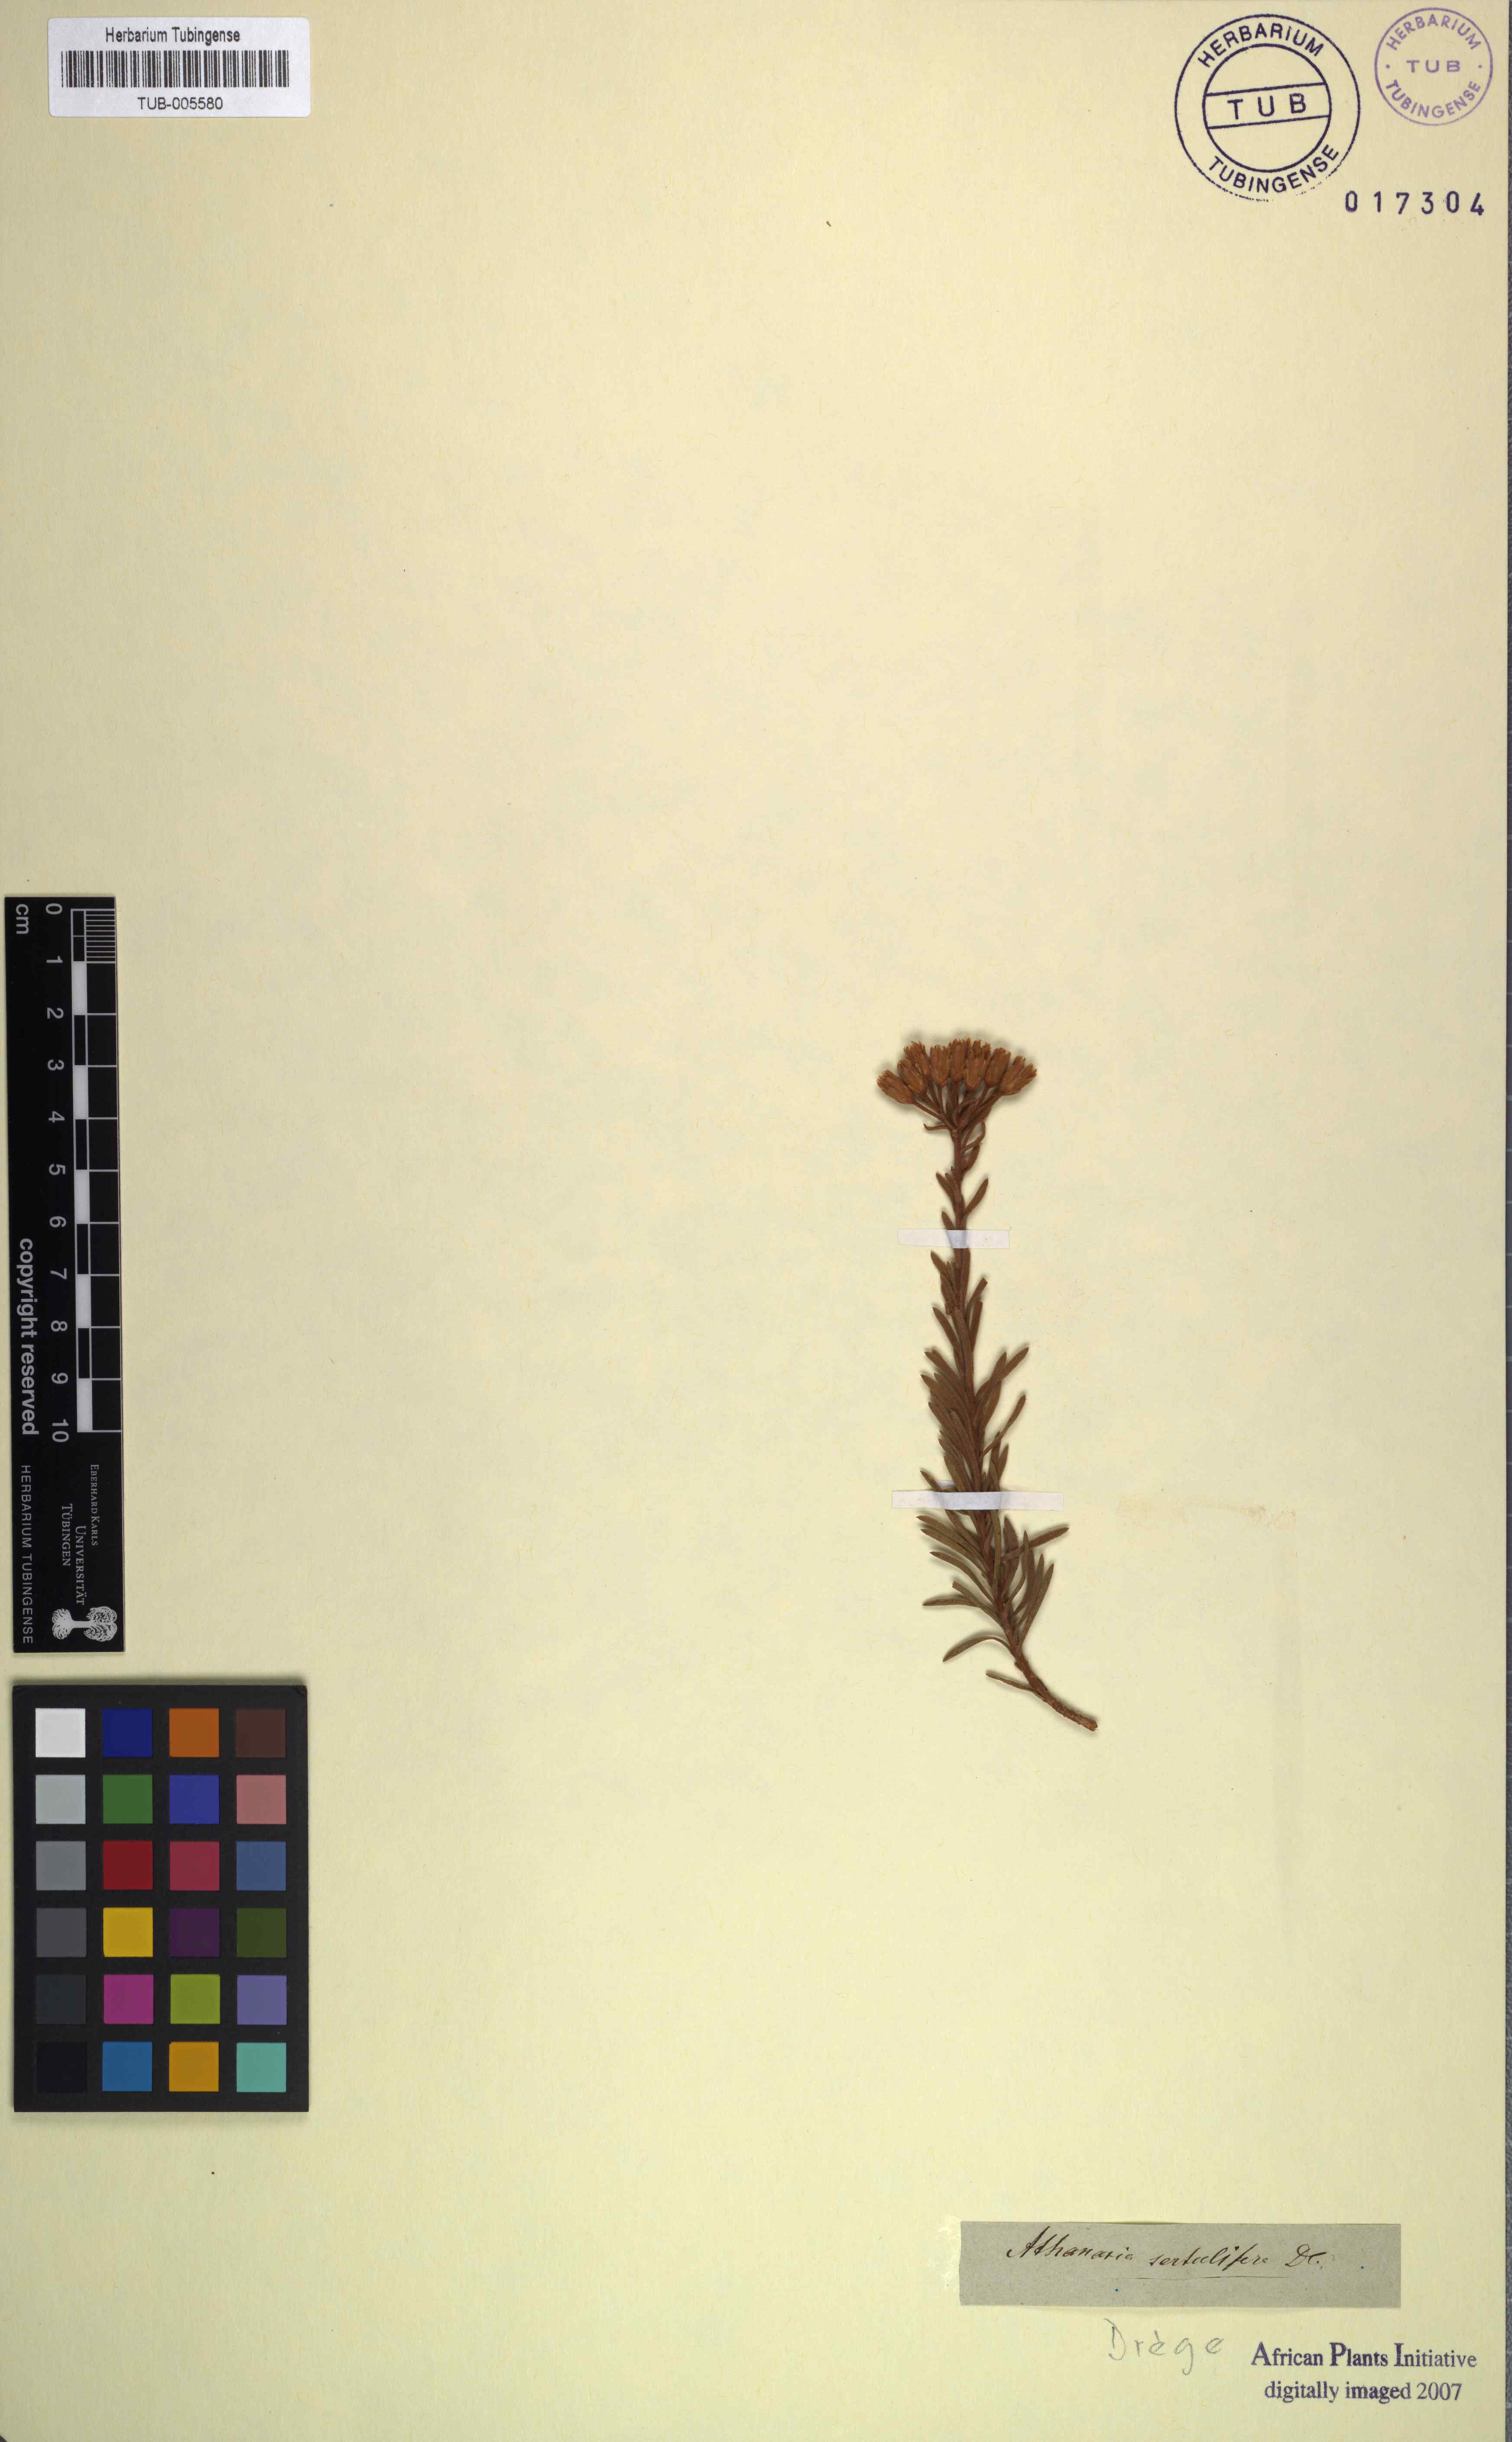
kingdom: Plantae
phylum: Tracheophyta
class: Magnoliopsida
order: Asterales
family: Asteraceae
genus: Athanasia
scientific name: Athanasia sertulifera
